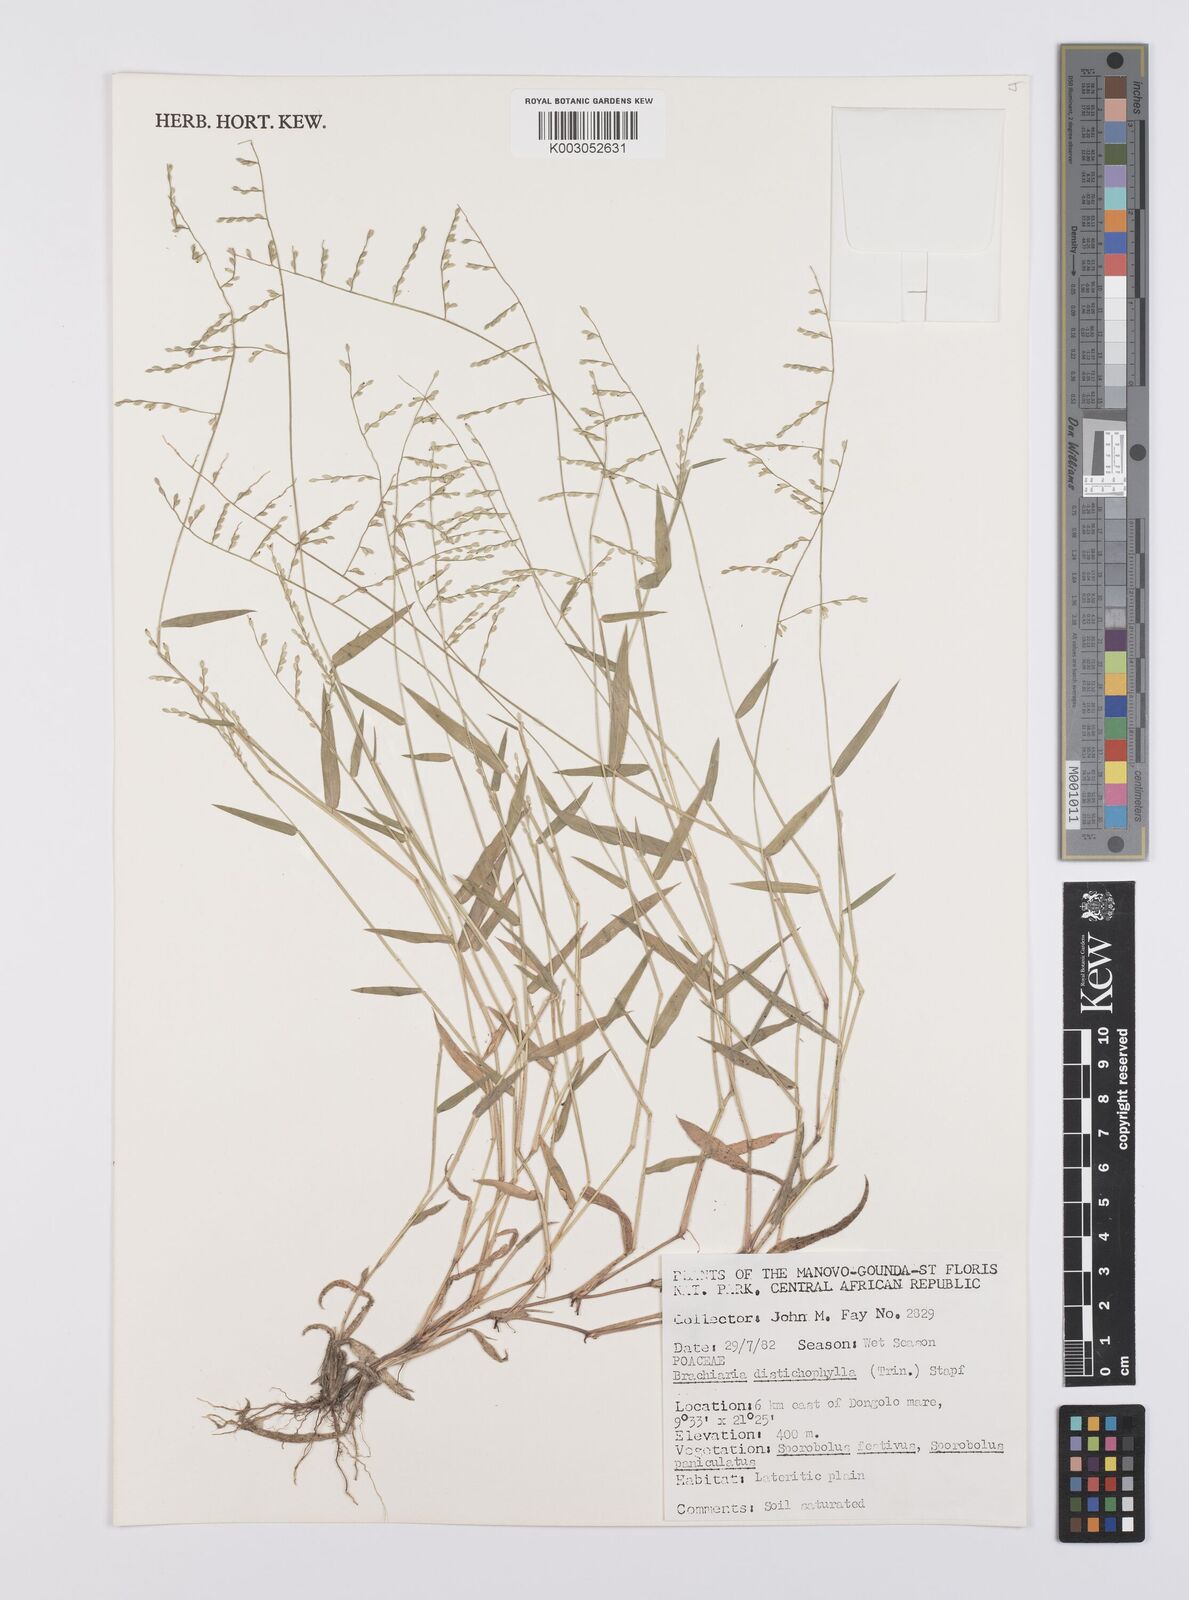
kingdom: Plantae
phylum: Tracheophyta
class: Liliopsida
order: Poales
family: Poaceae
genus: Urochloa
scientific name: Urochloa villosa
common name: Hairy signalgrass
